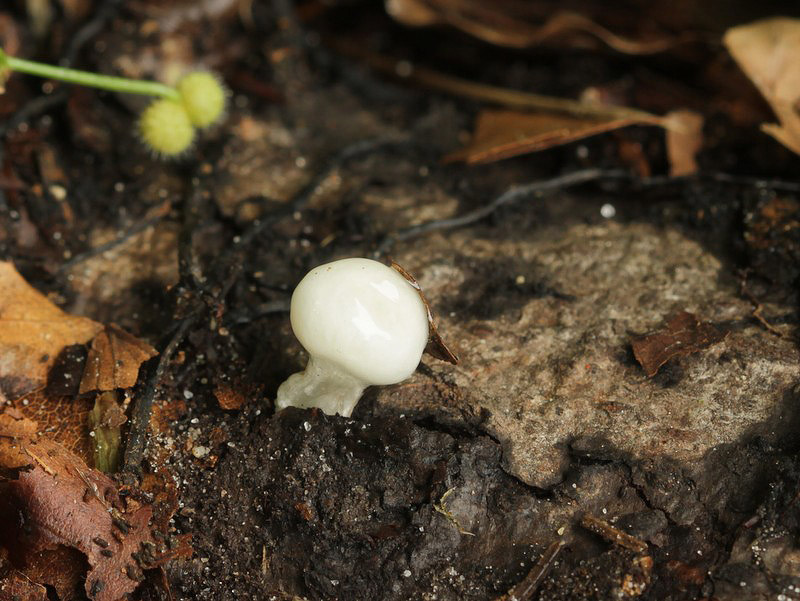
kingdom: Fungi
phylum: Basidiomycota
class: Agaricomycetes
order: Agaricales
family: Physalacriaceae
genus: Mucidula
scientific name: Mucidula mucida
